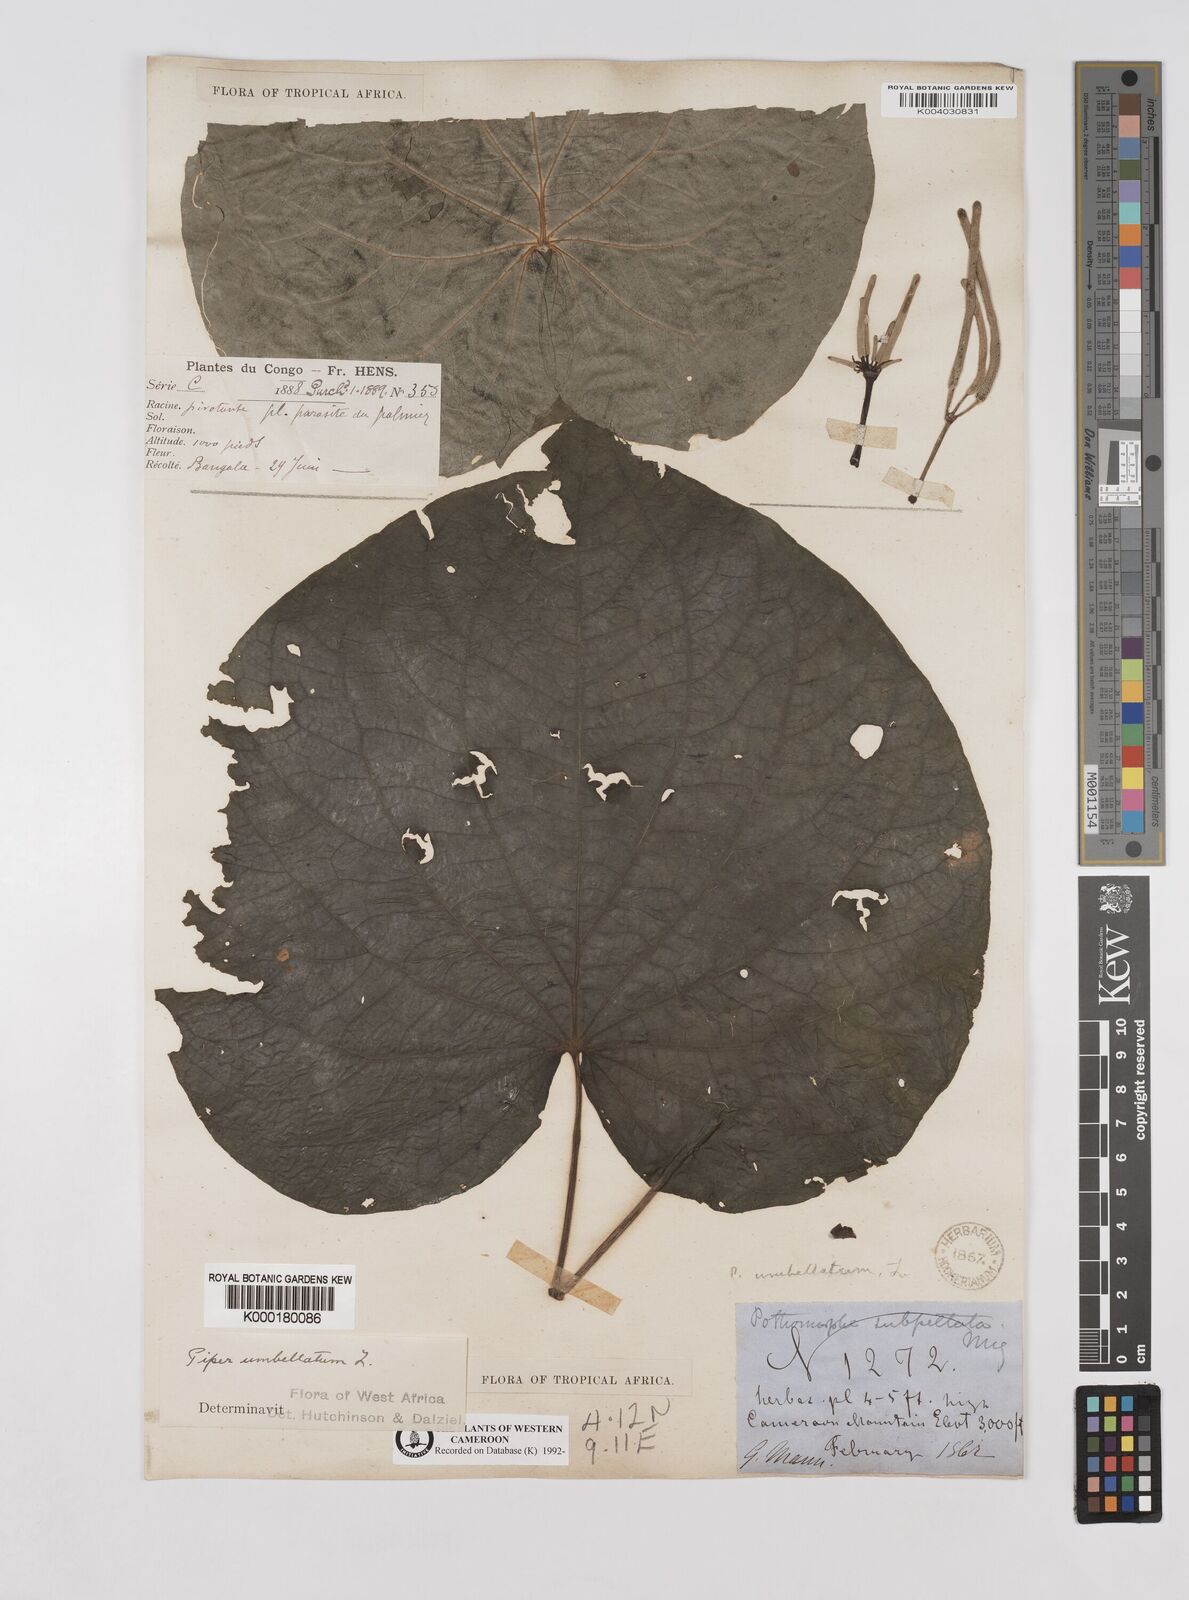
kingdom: Plantae
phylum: Tracheophyta
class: Magnoliopsida
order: Piperales
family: Piperaceae
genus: Piper
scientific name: Piper umbellatum
